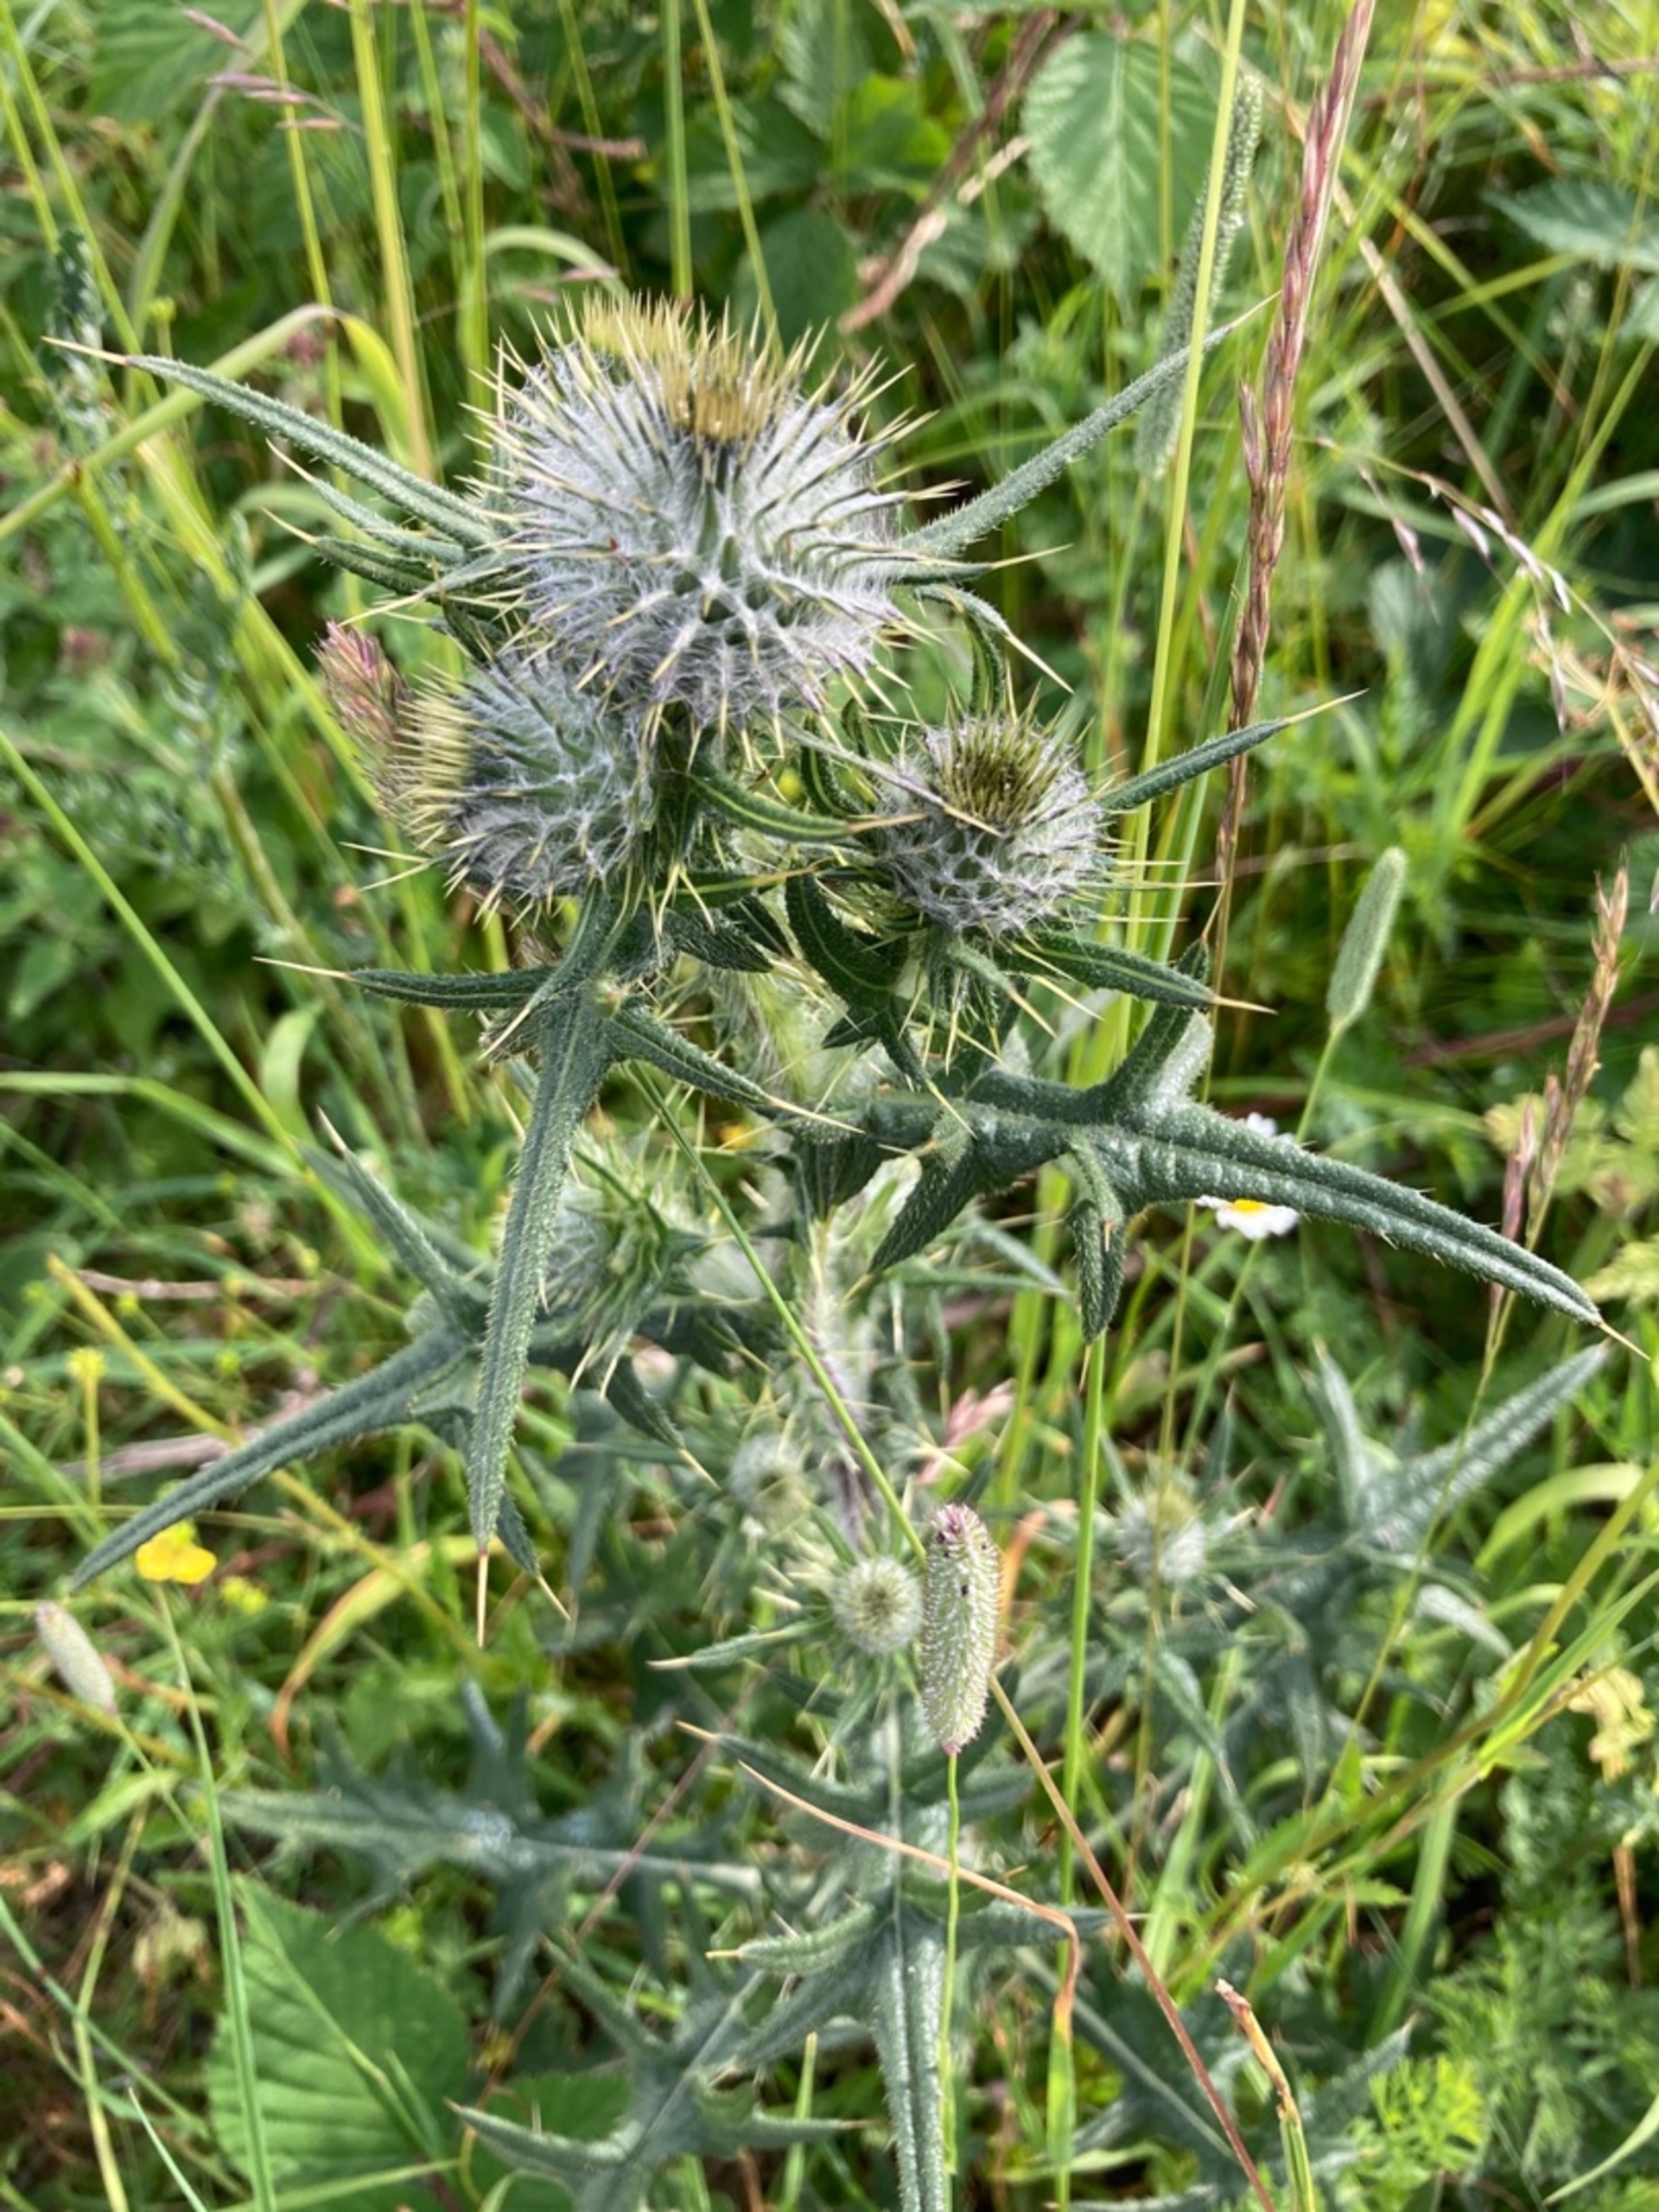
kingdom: Plantae
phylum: Tracheophyta
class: Magnoliopsida
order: Asterales
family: Asteraceae
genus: Cirsium
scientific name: Cirsium vulgare
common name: Horse-tidsel
